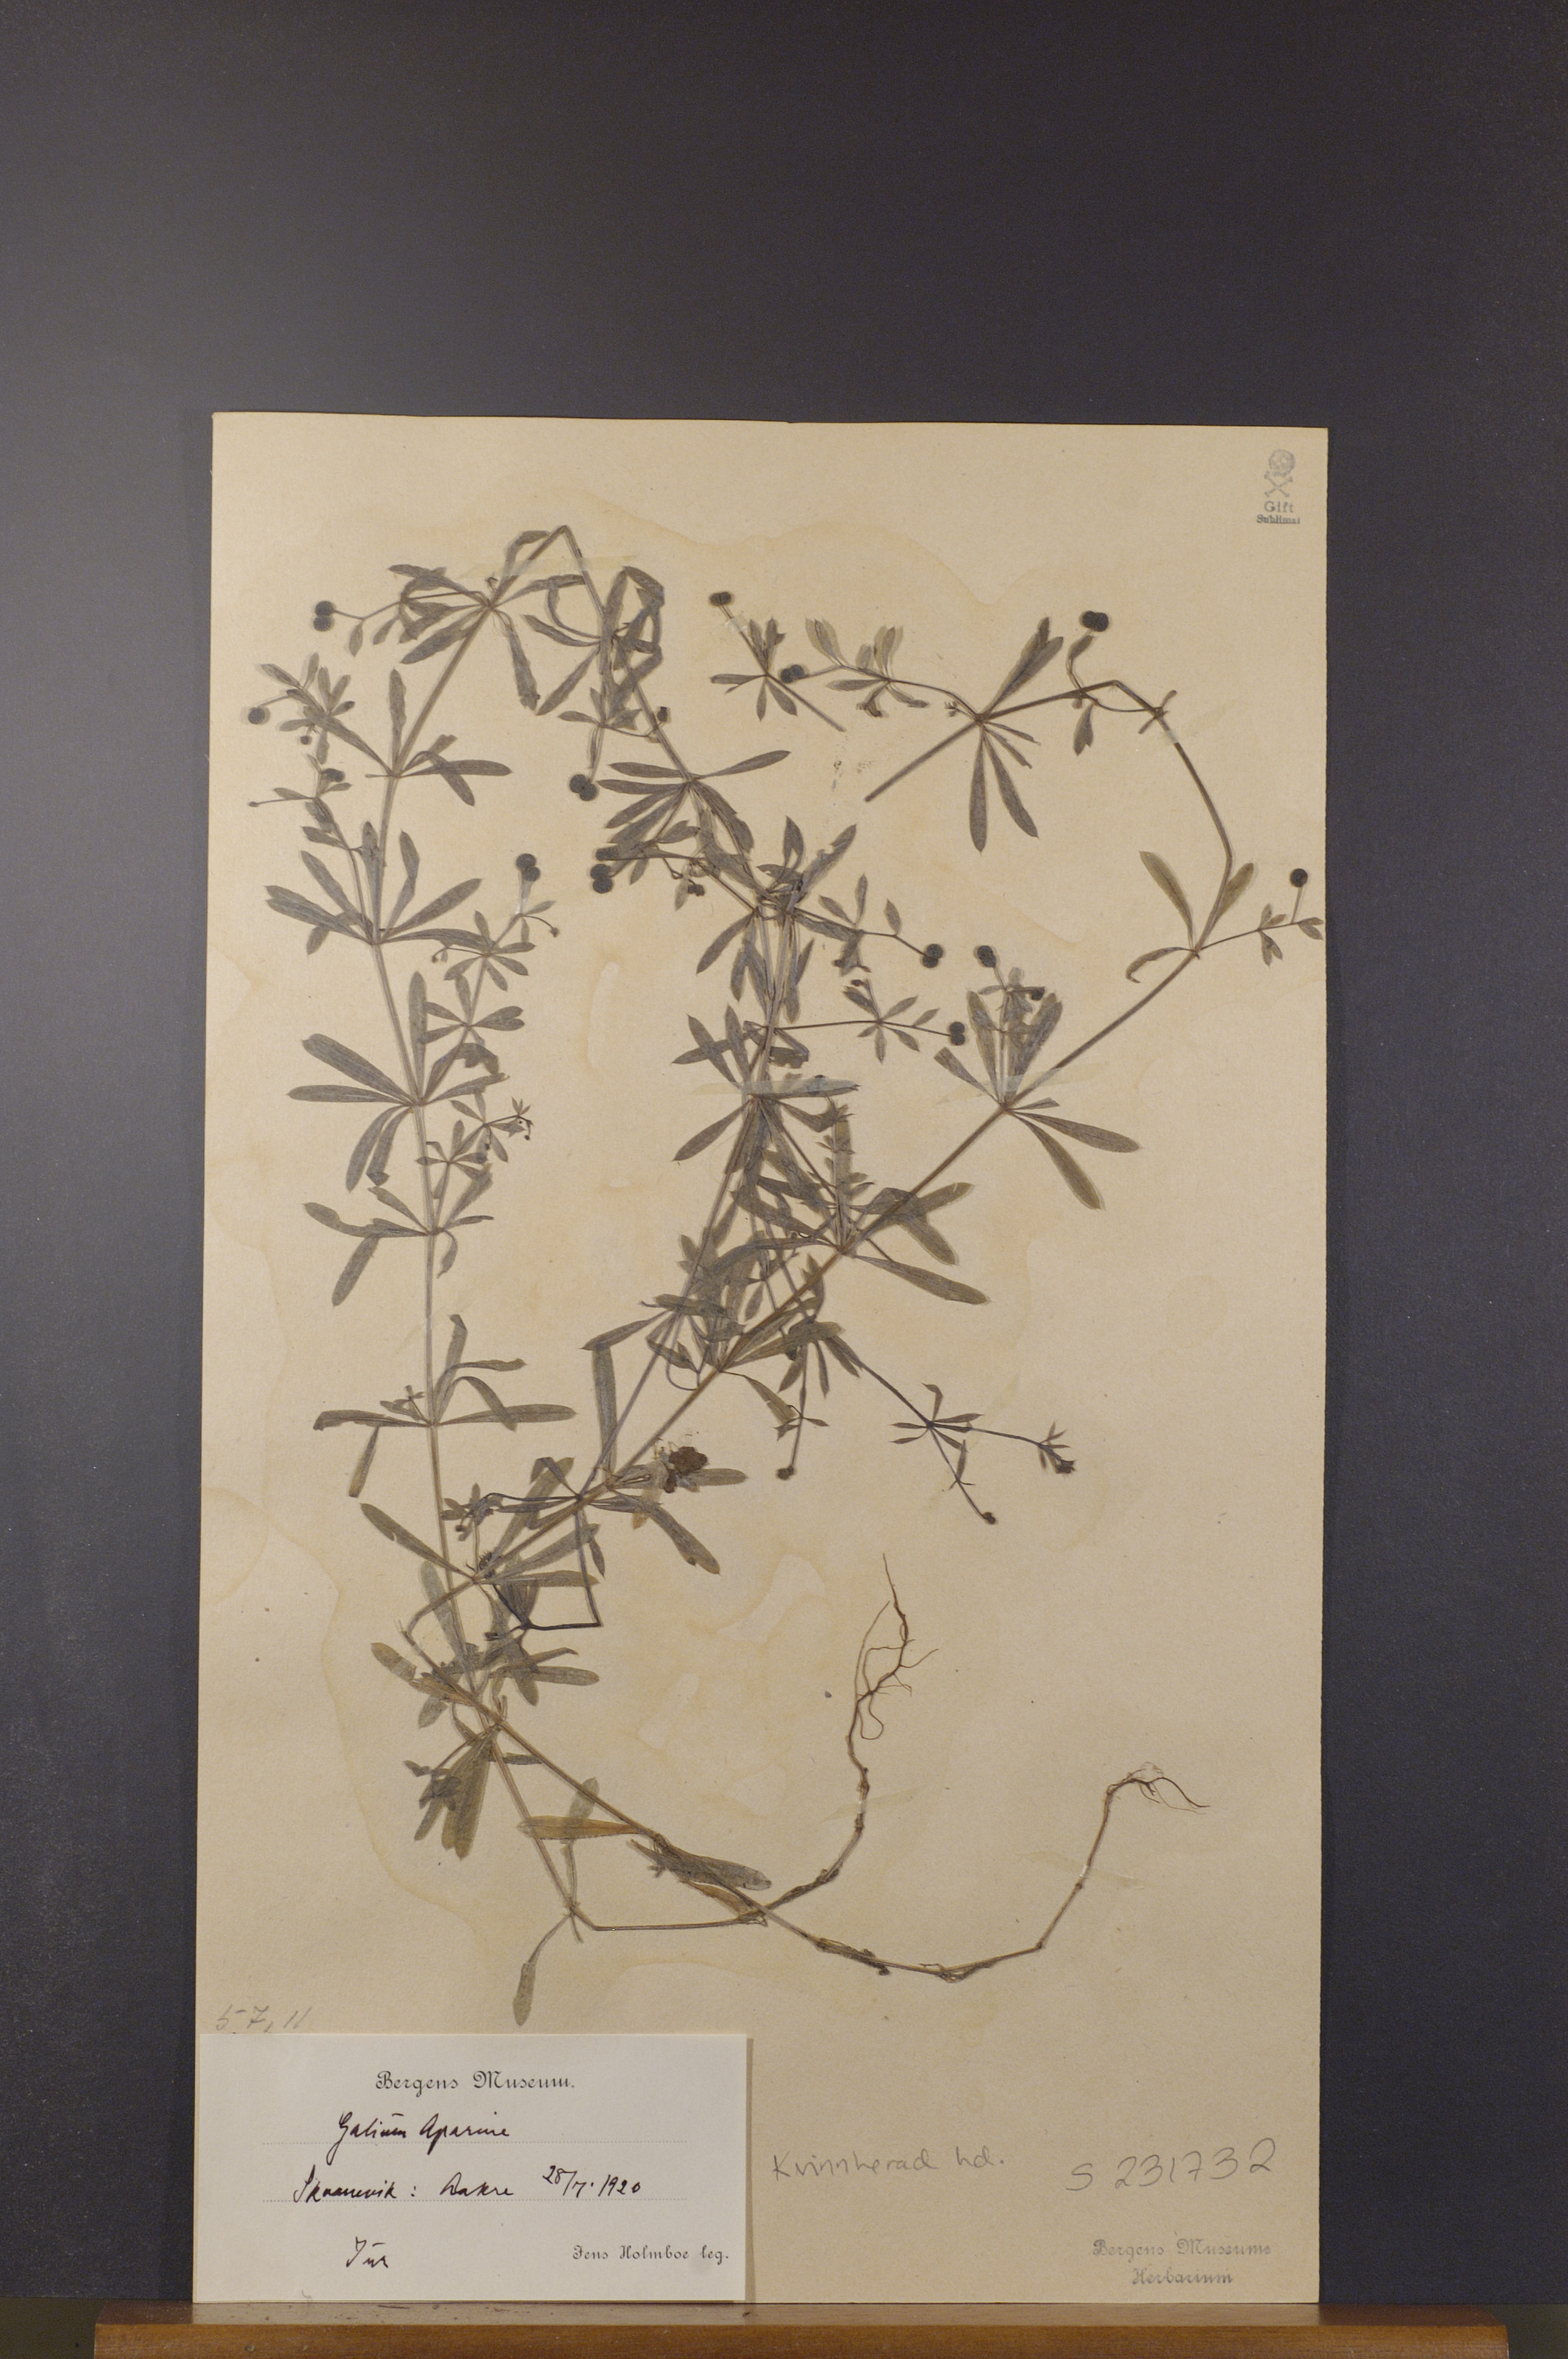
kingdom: Plantae
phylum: Tracheophyta
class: Magnoliopsida
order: Gentianales
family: Rubiaceae
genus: Galium
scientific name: Galium aparine
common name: Cleavers
